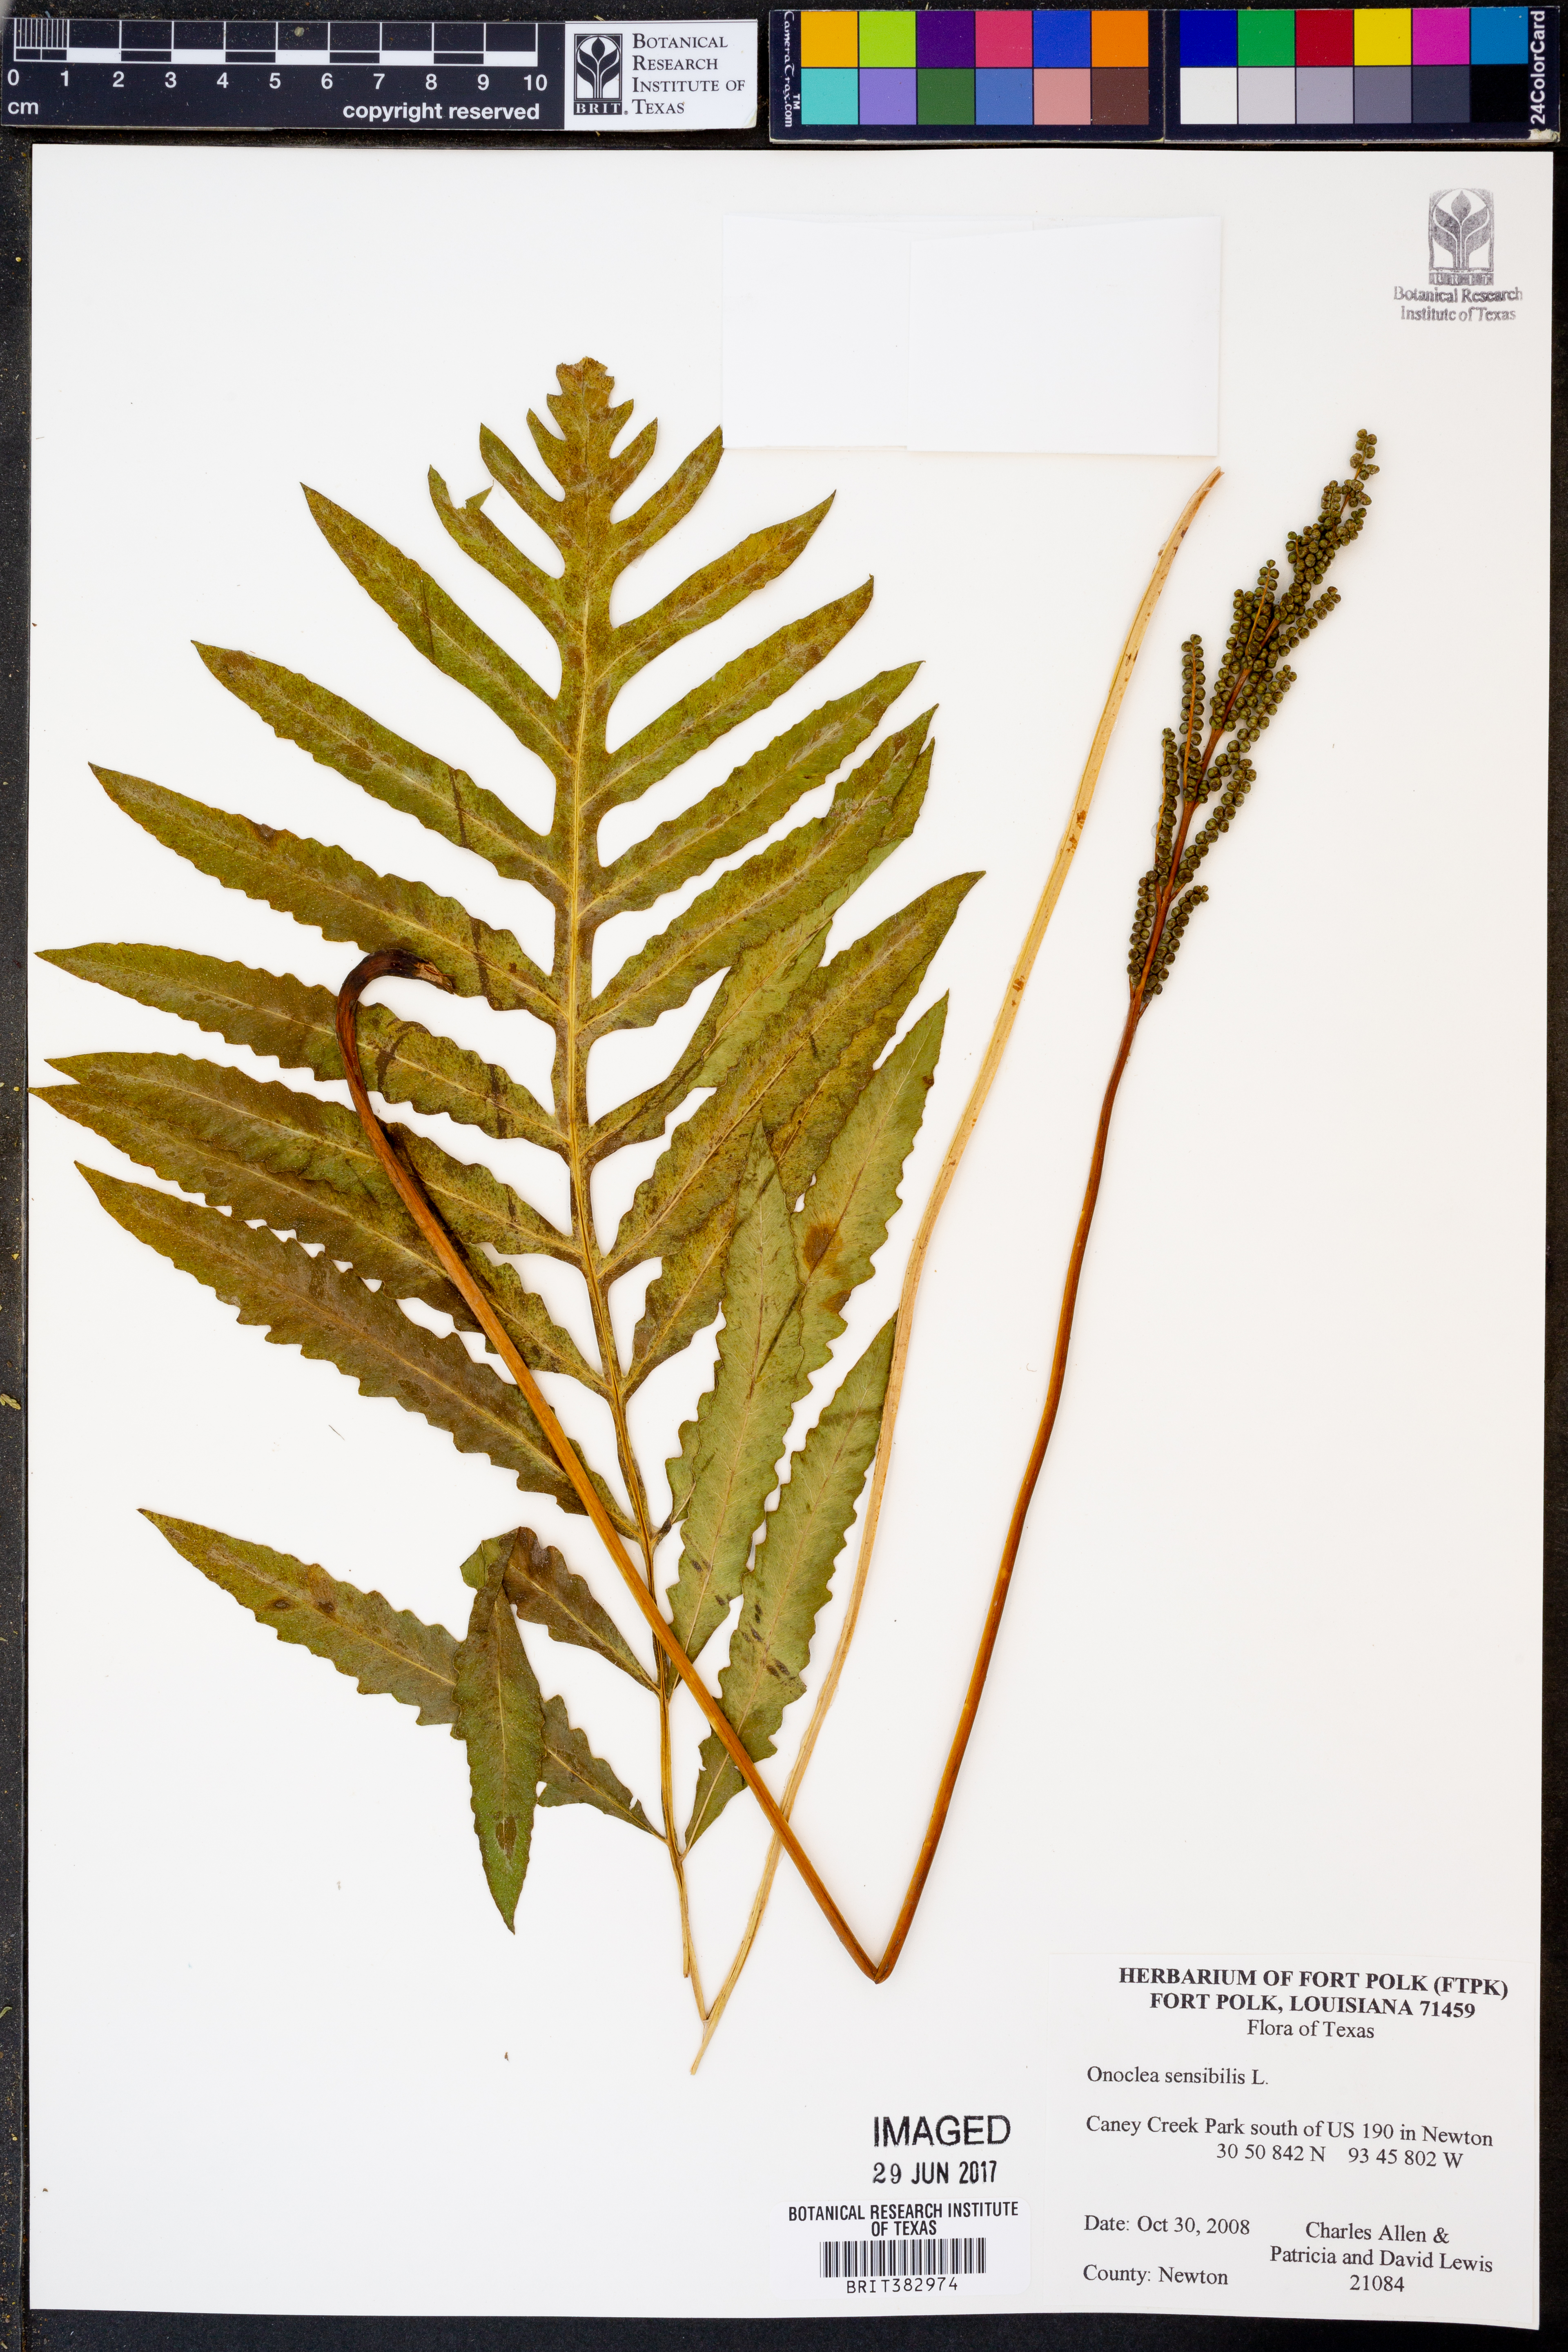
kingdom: Plantae
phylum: Tracheophyta
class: Polypodiopsida
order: Polypodiales
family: Onocleaceae
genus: Onoclea
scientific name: Onoclea sensibilis
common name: Sensitive fern
